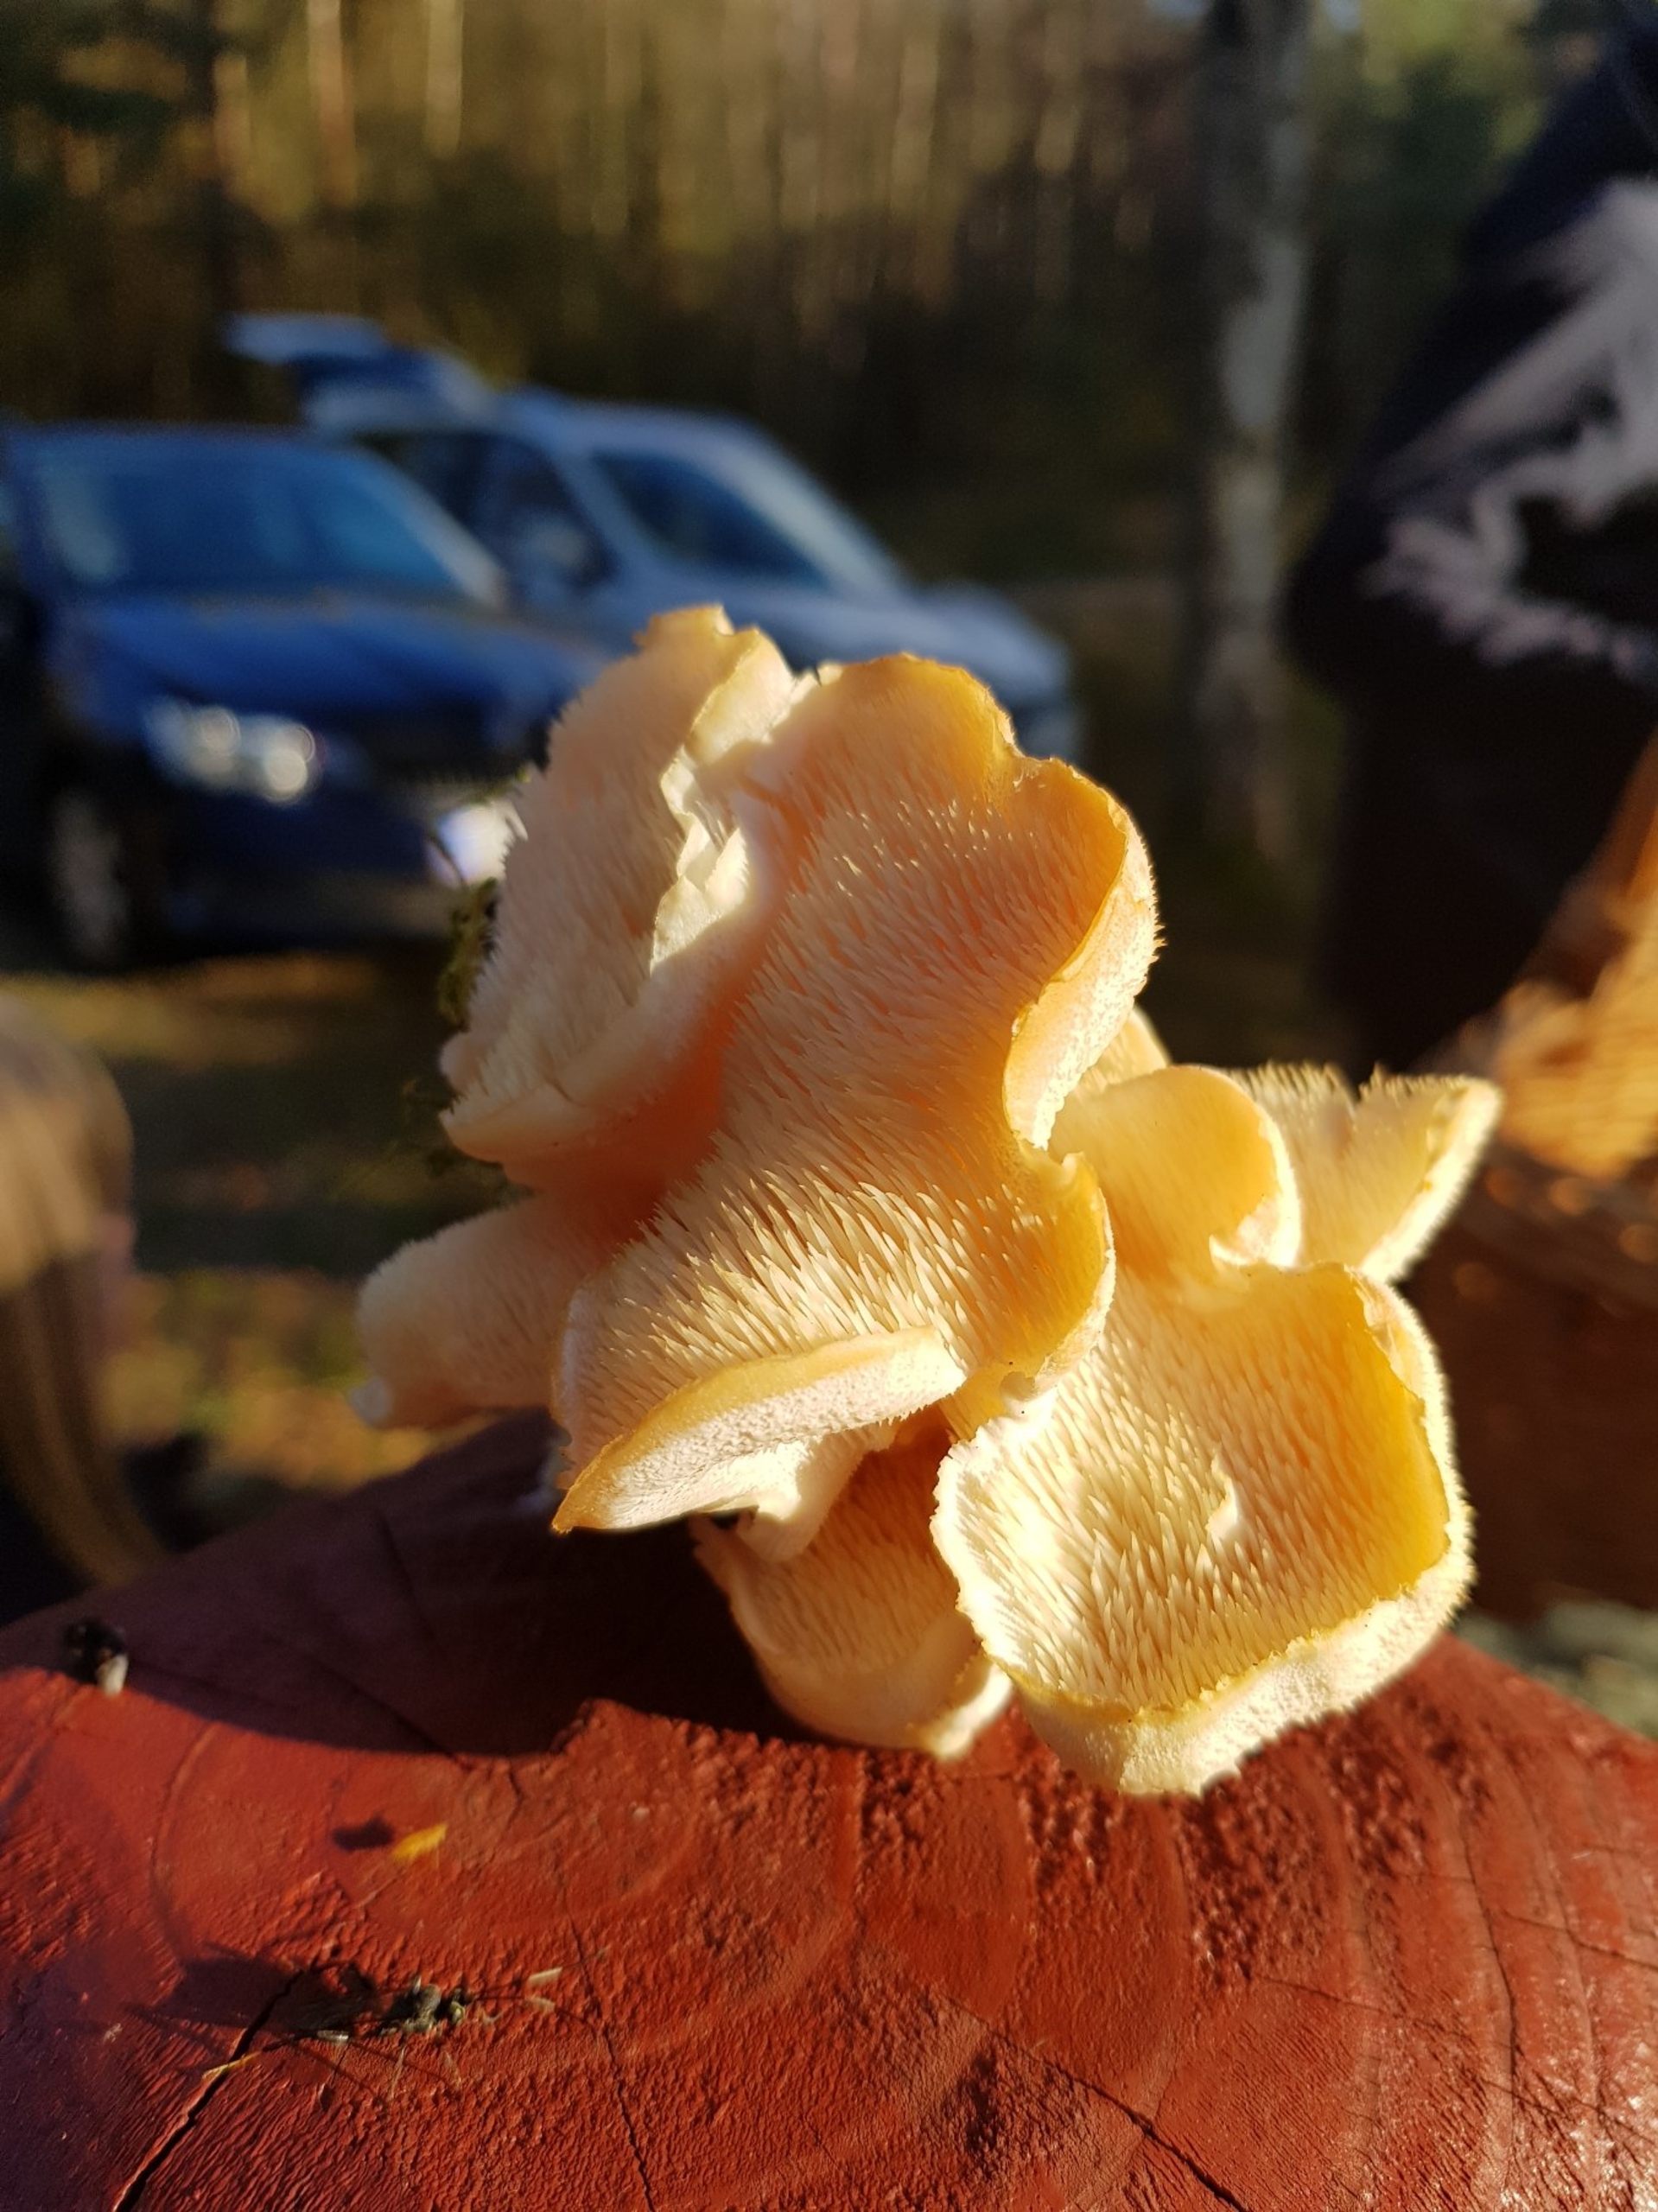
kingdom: Fungi
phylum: Basidiomycota
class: Agaricomycetes
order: Russulales
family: Hericiaceae
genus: Hericium
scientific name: Hericium cirrhatum
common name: Børstepigsvamp
